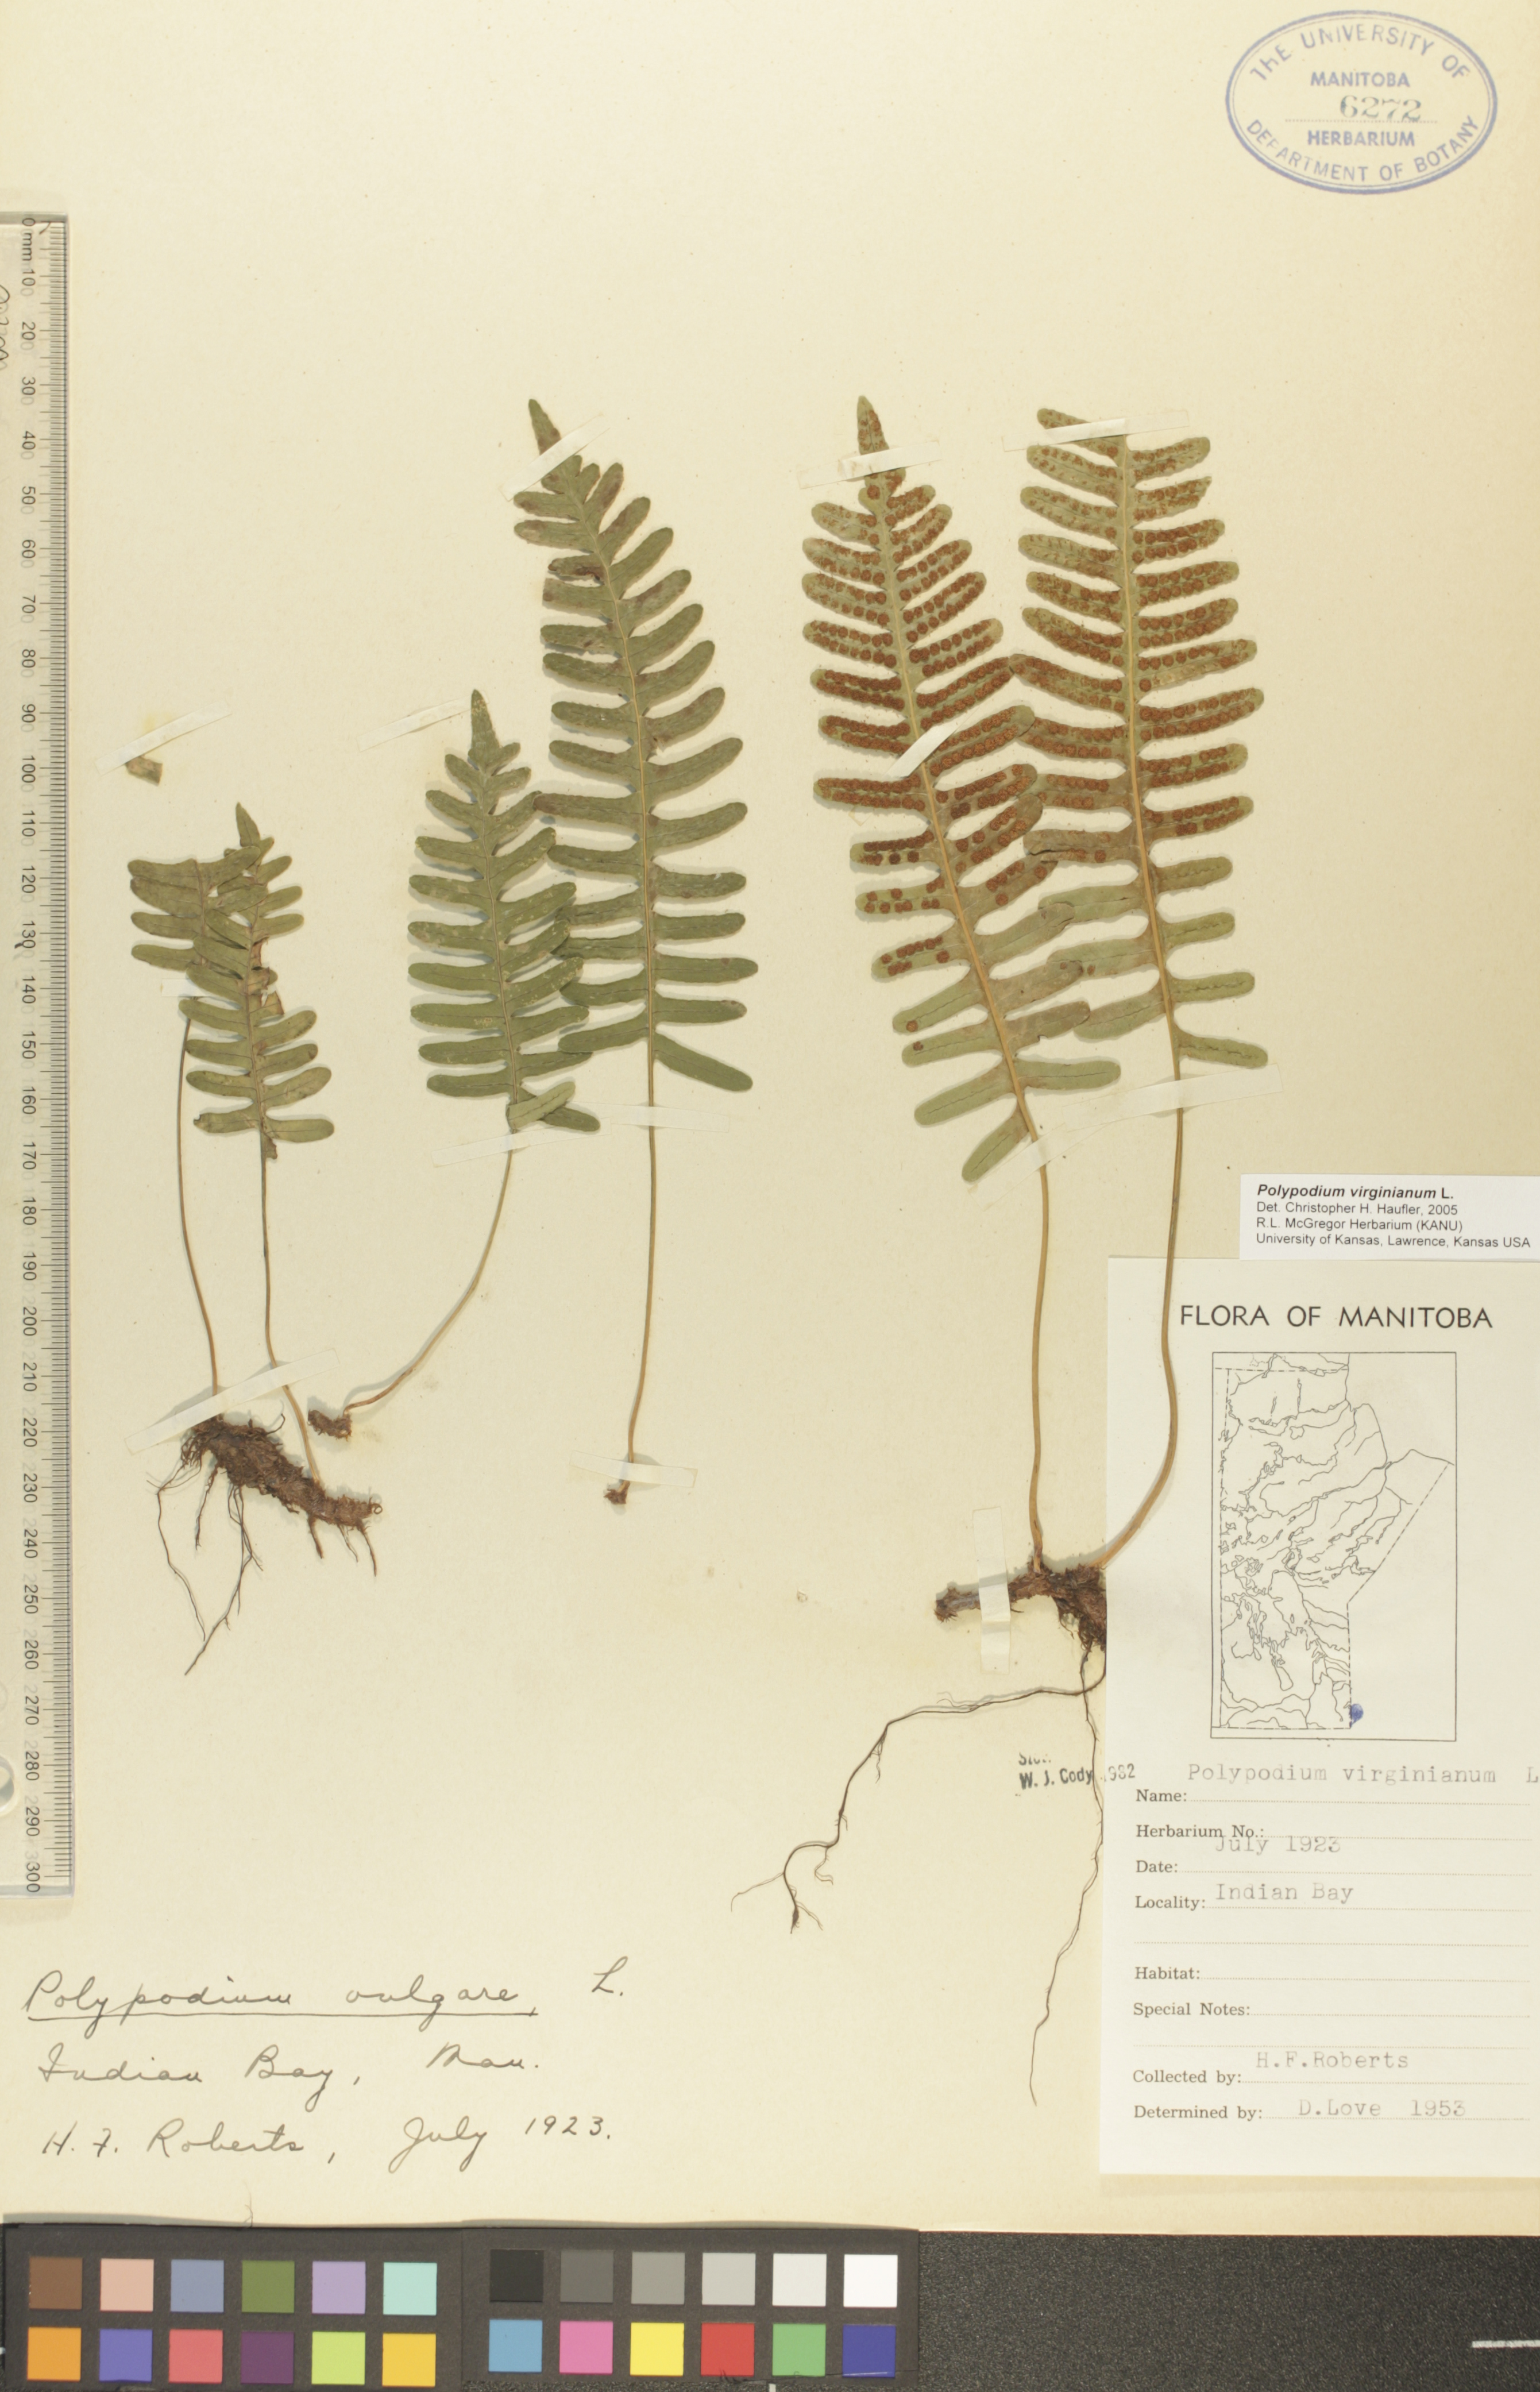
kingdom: Plantae
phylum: Tracheophyta
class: Polypodiopsida
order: Polypodiales
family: Polypodiaceae
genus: Polypodium
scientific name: Polypodium virginianum
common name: American wall fern
